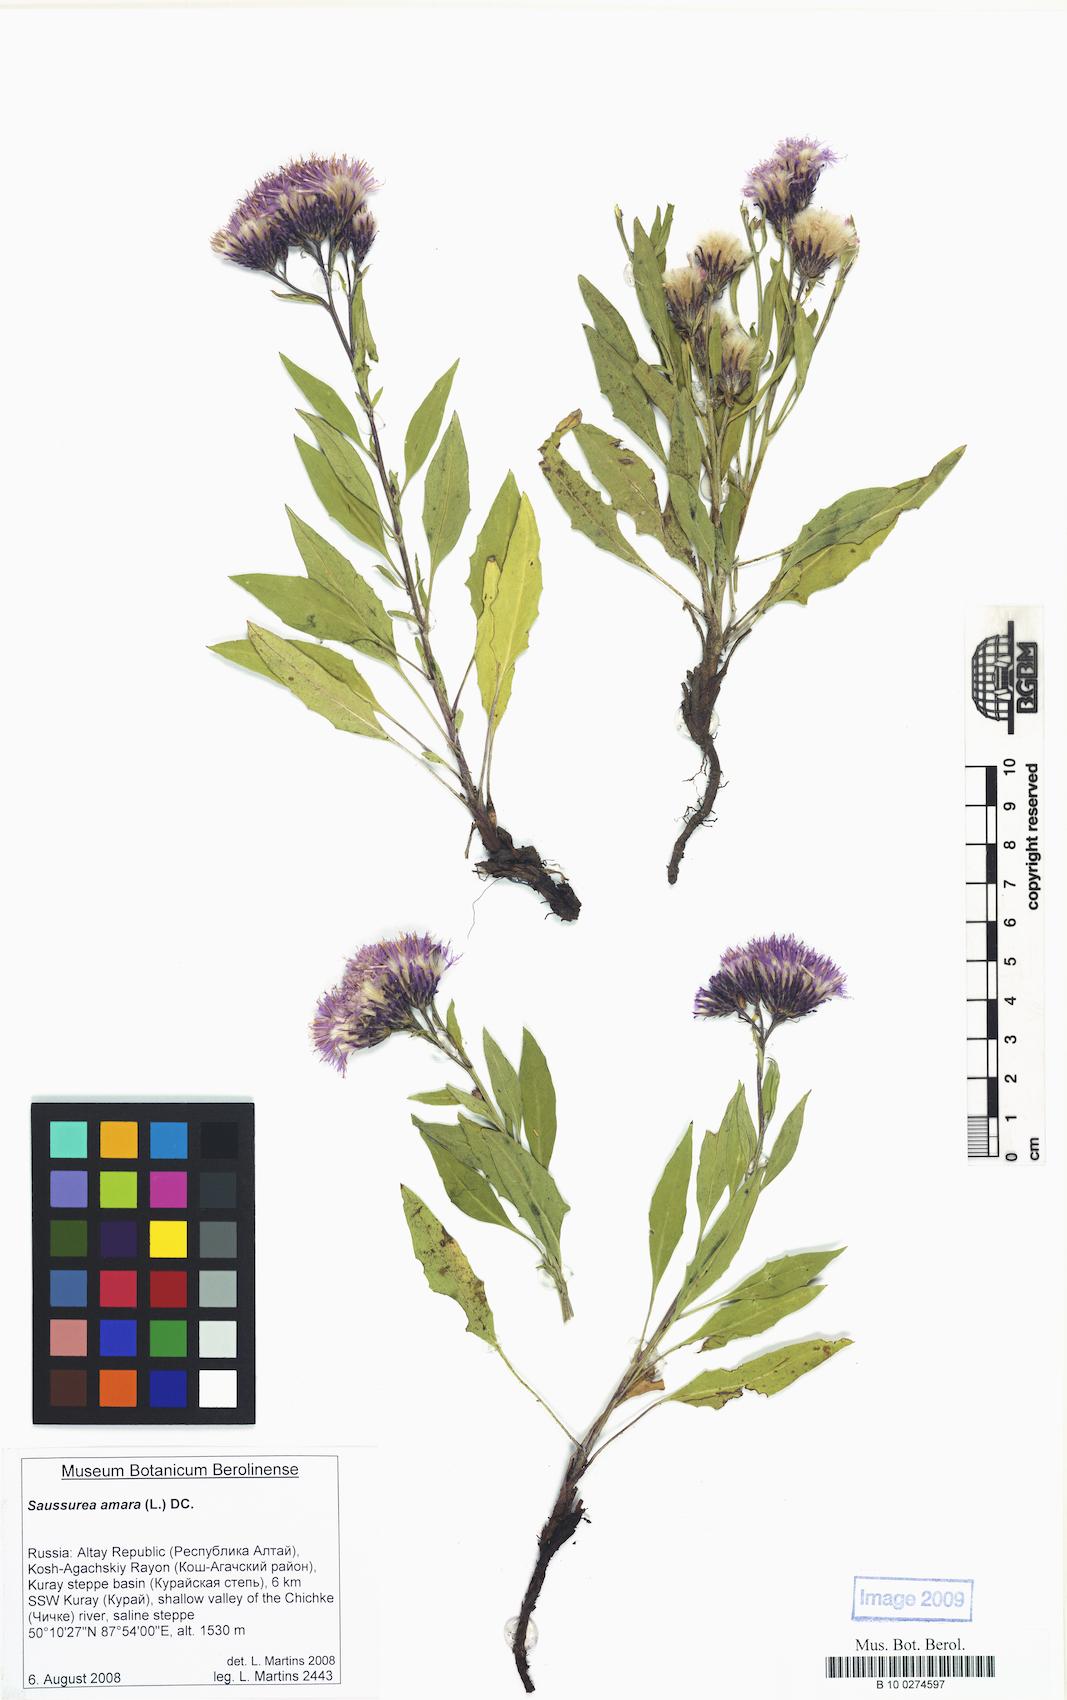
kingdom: Plantae
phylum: Tracheophyta
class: Magnoliopsida
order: Asterales
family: Asteraceae
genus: Saussurea
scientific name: Saussurea amara
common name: Alberta sawwort
